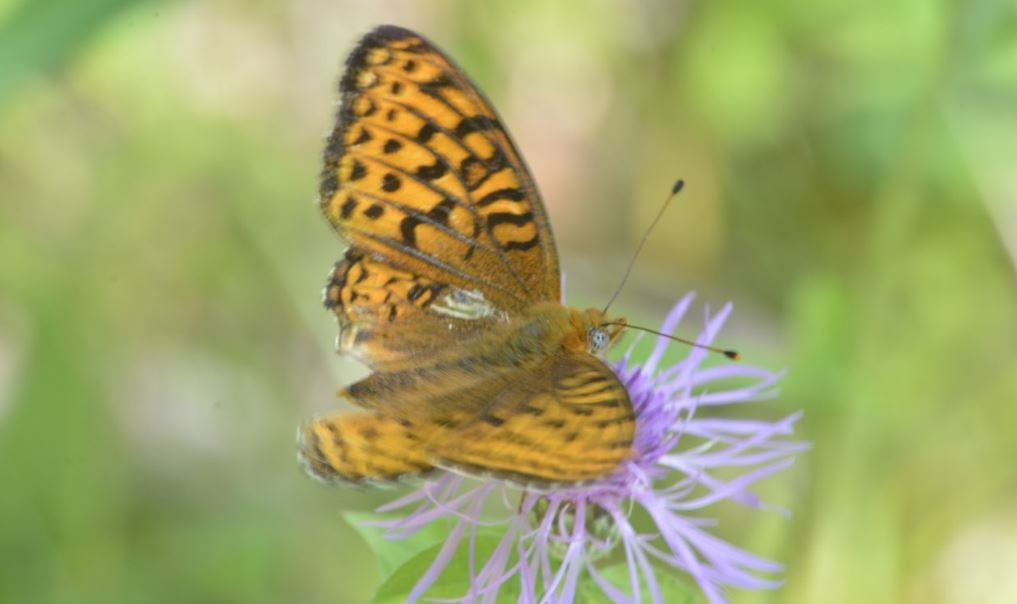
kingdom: Animalia
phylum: Arthropoda
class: Insecta
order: Lepidoptera
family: Nymphalidae
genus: Speyeria
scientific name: Speyeria atlantis
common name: Atlantis Fritillary
